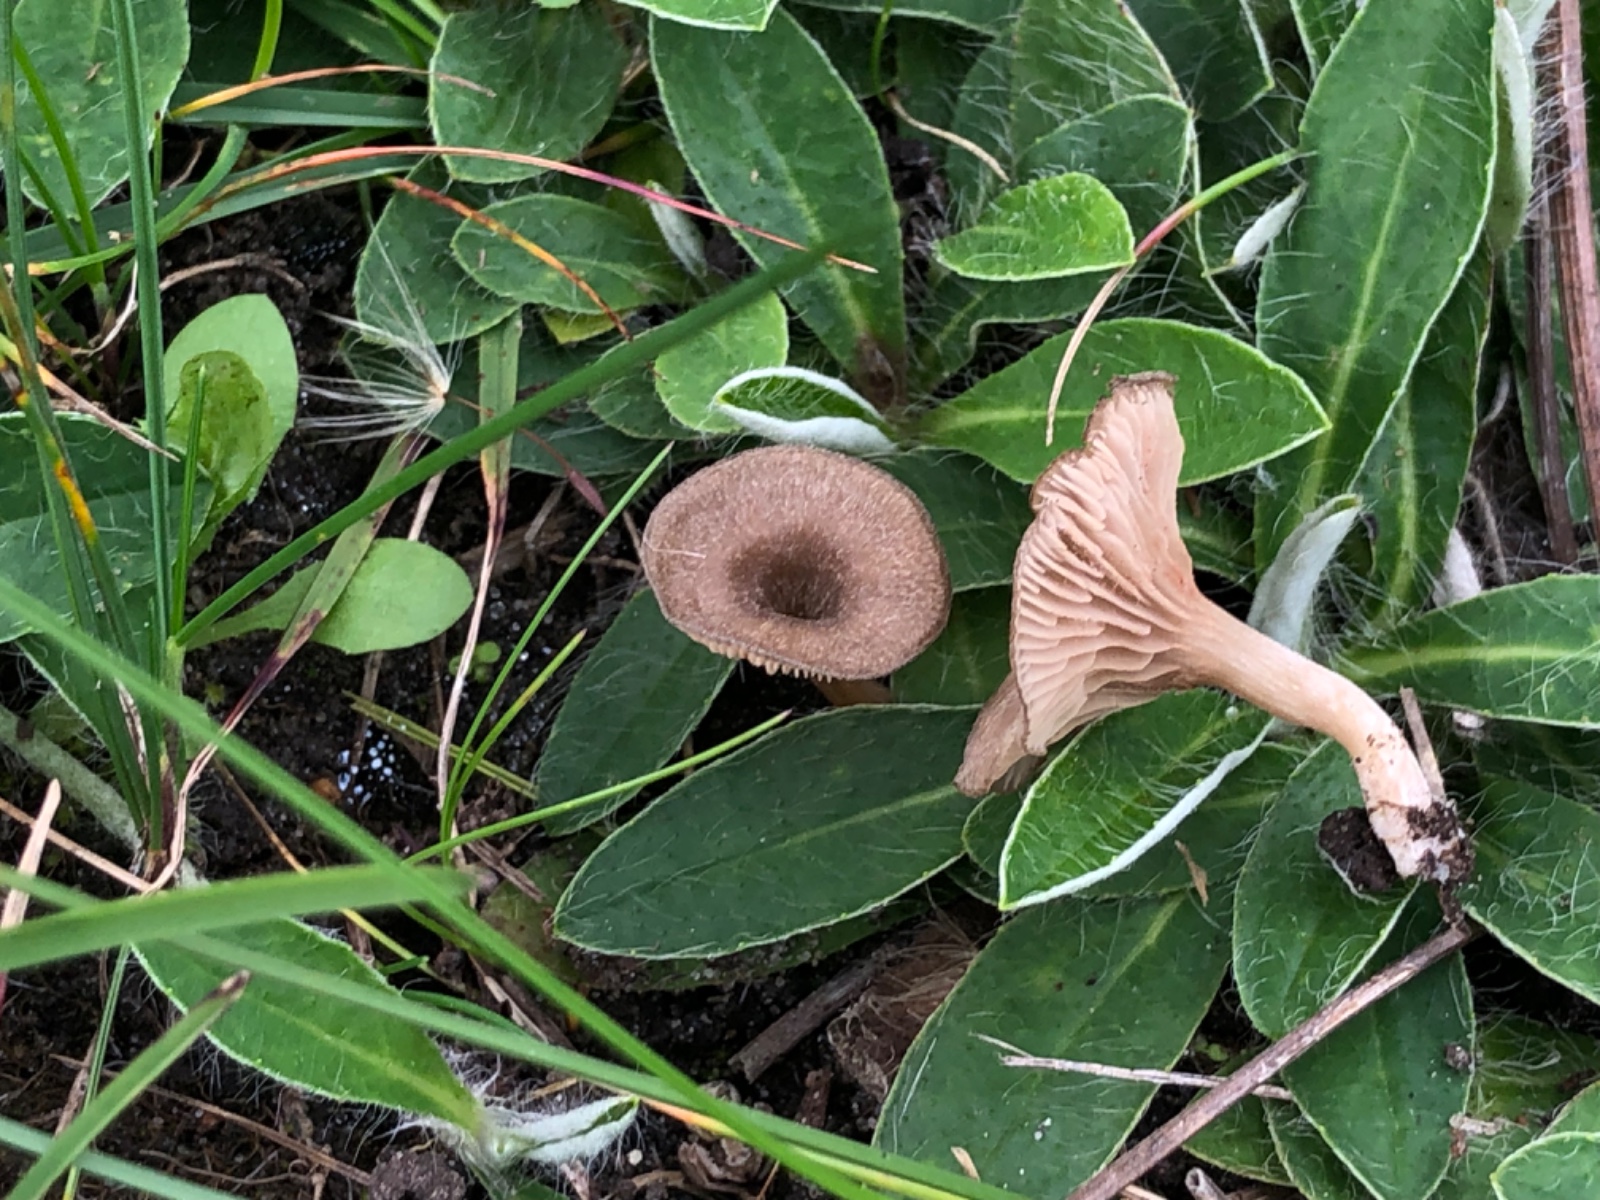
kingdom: Fungi
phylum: Basidiomycota
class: Agaricomycetes
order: Agaricales
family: Entolomataceae
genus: Entoloma
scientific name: Entoloma undatum
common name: bæltet rødblad
